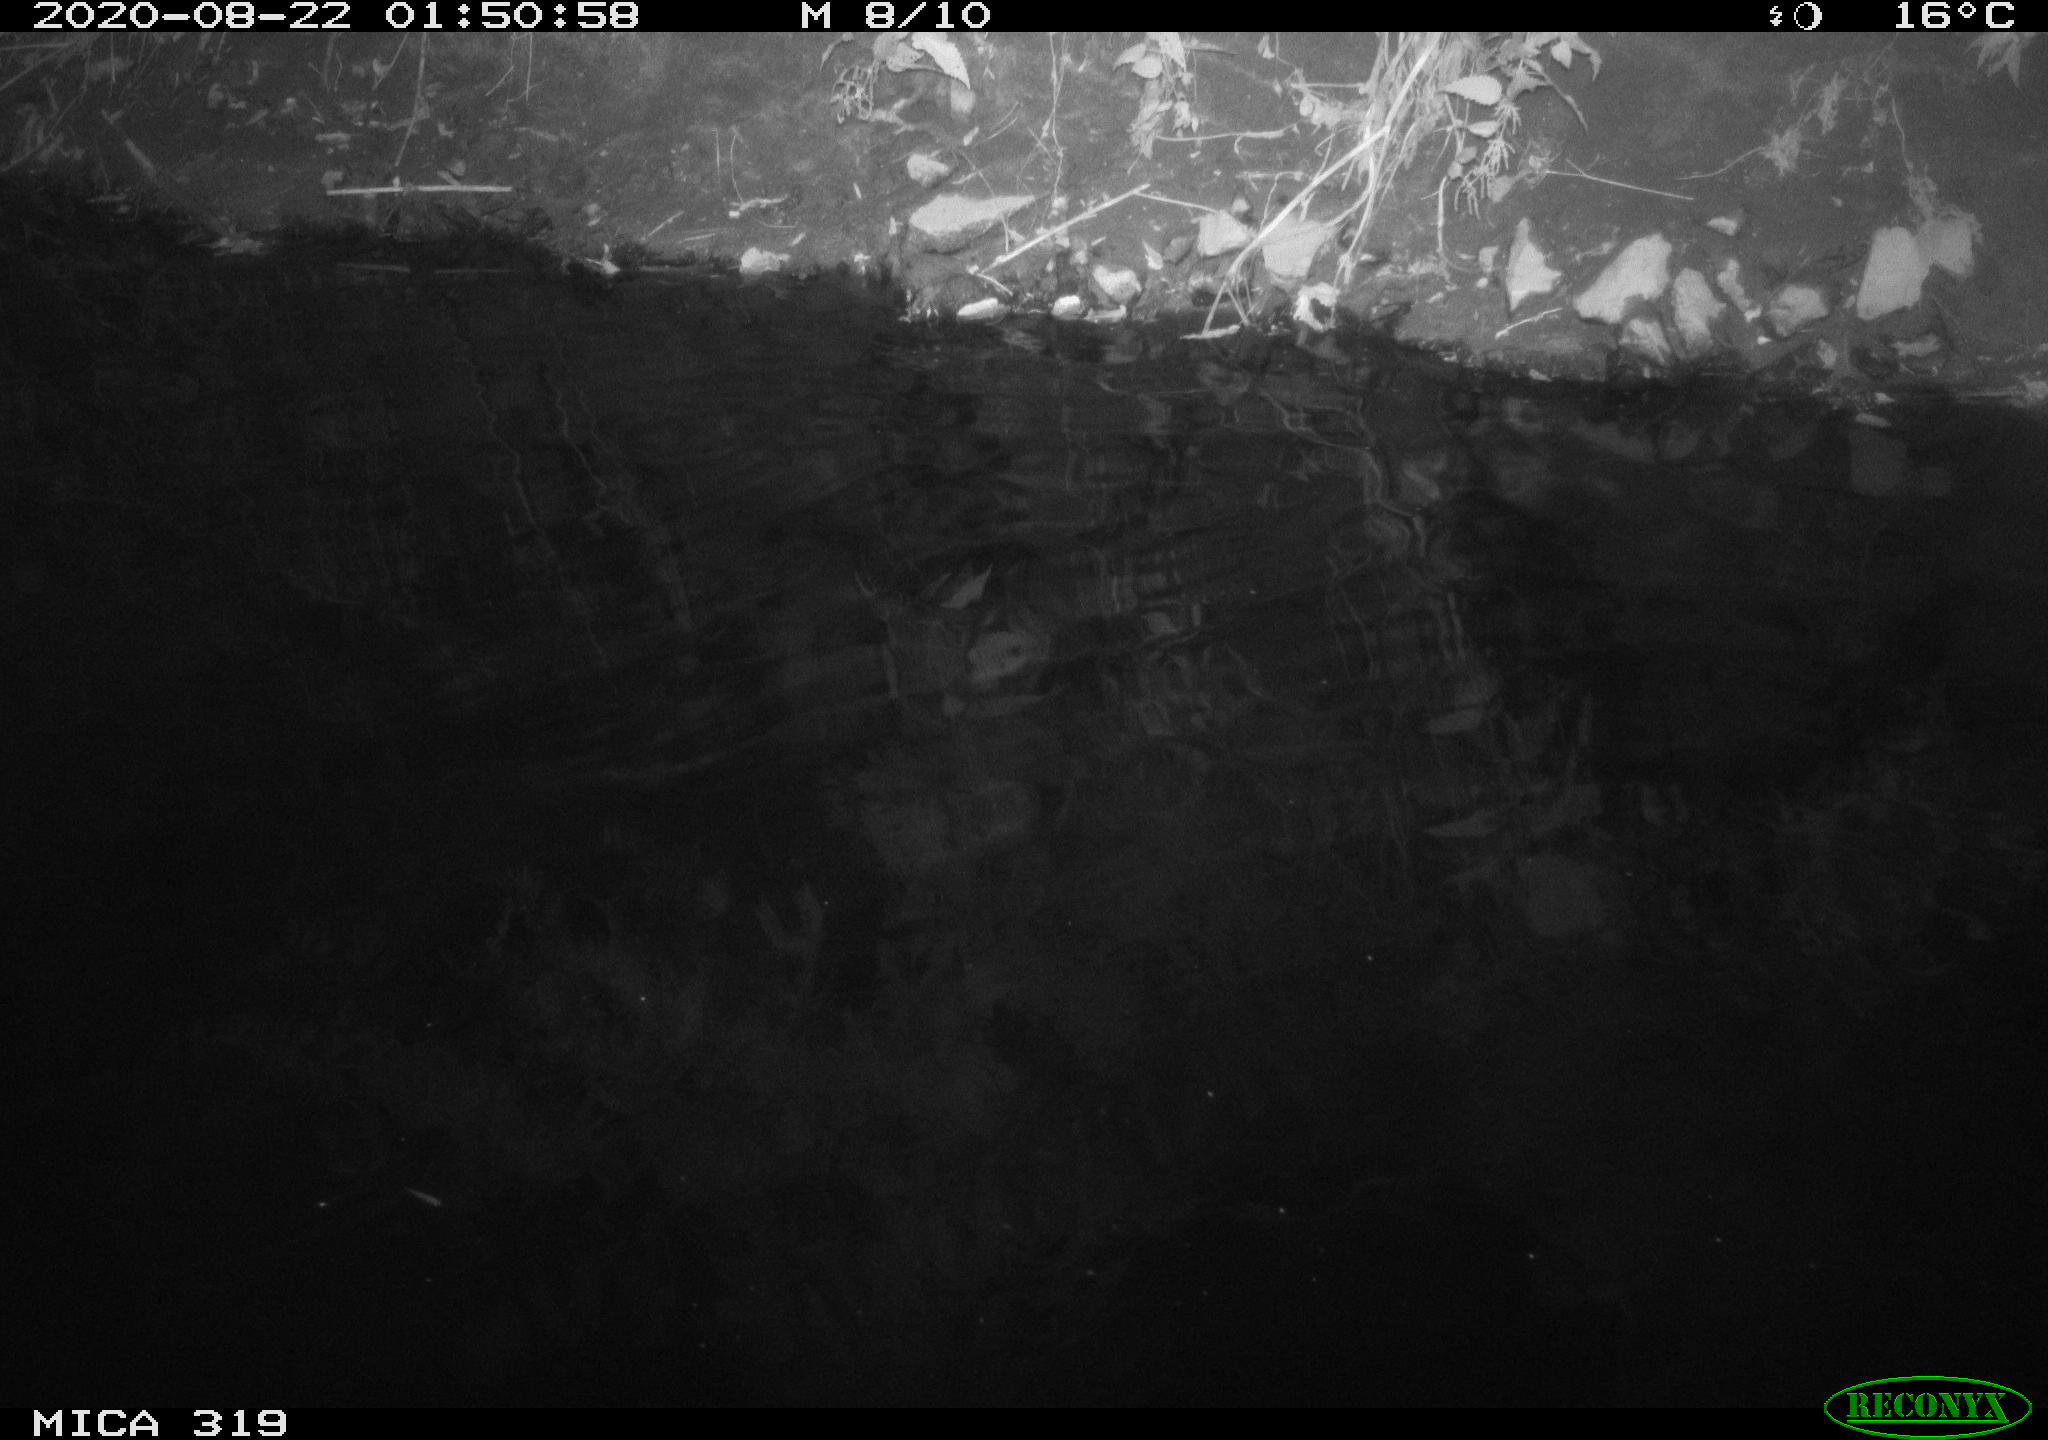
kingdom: Animalia
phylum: Chordata
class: Aves
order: Anseriformes
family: Anatidae
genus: Anas
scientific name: Anas platyrhynchos
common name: Mallard
